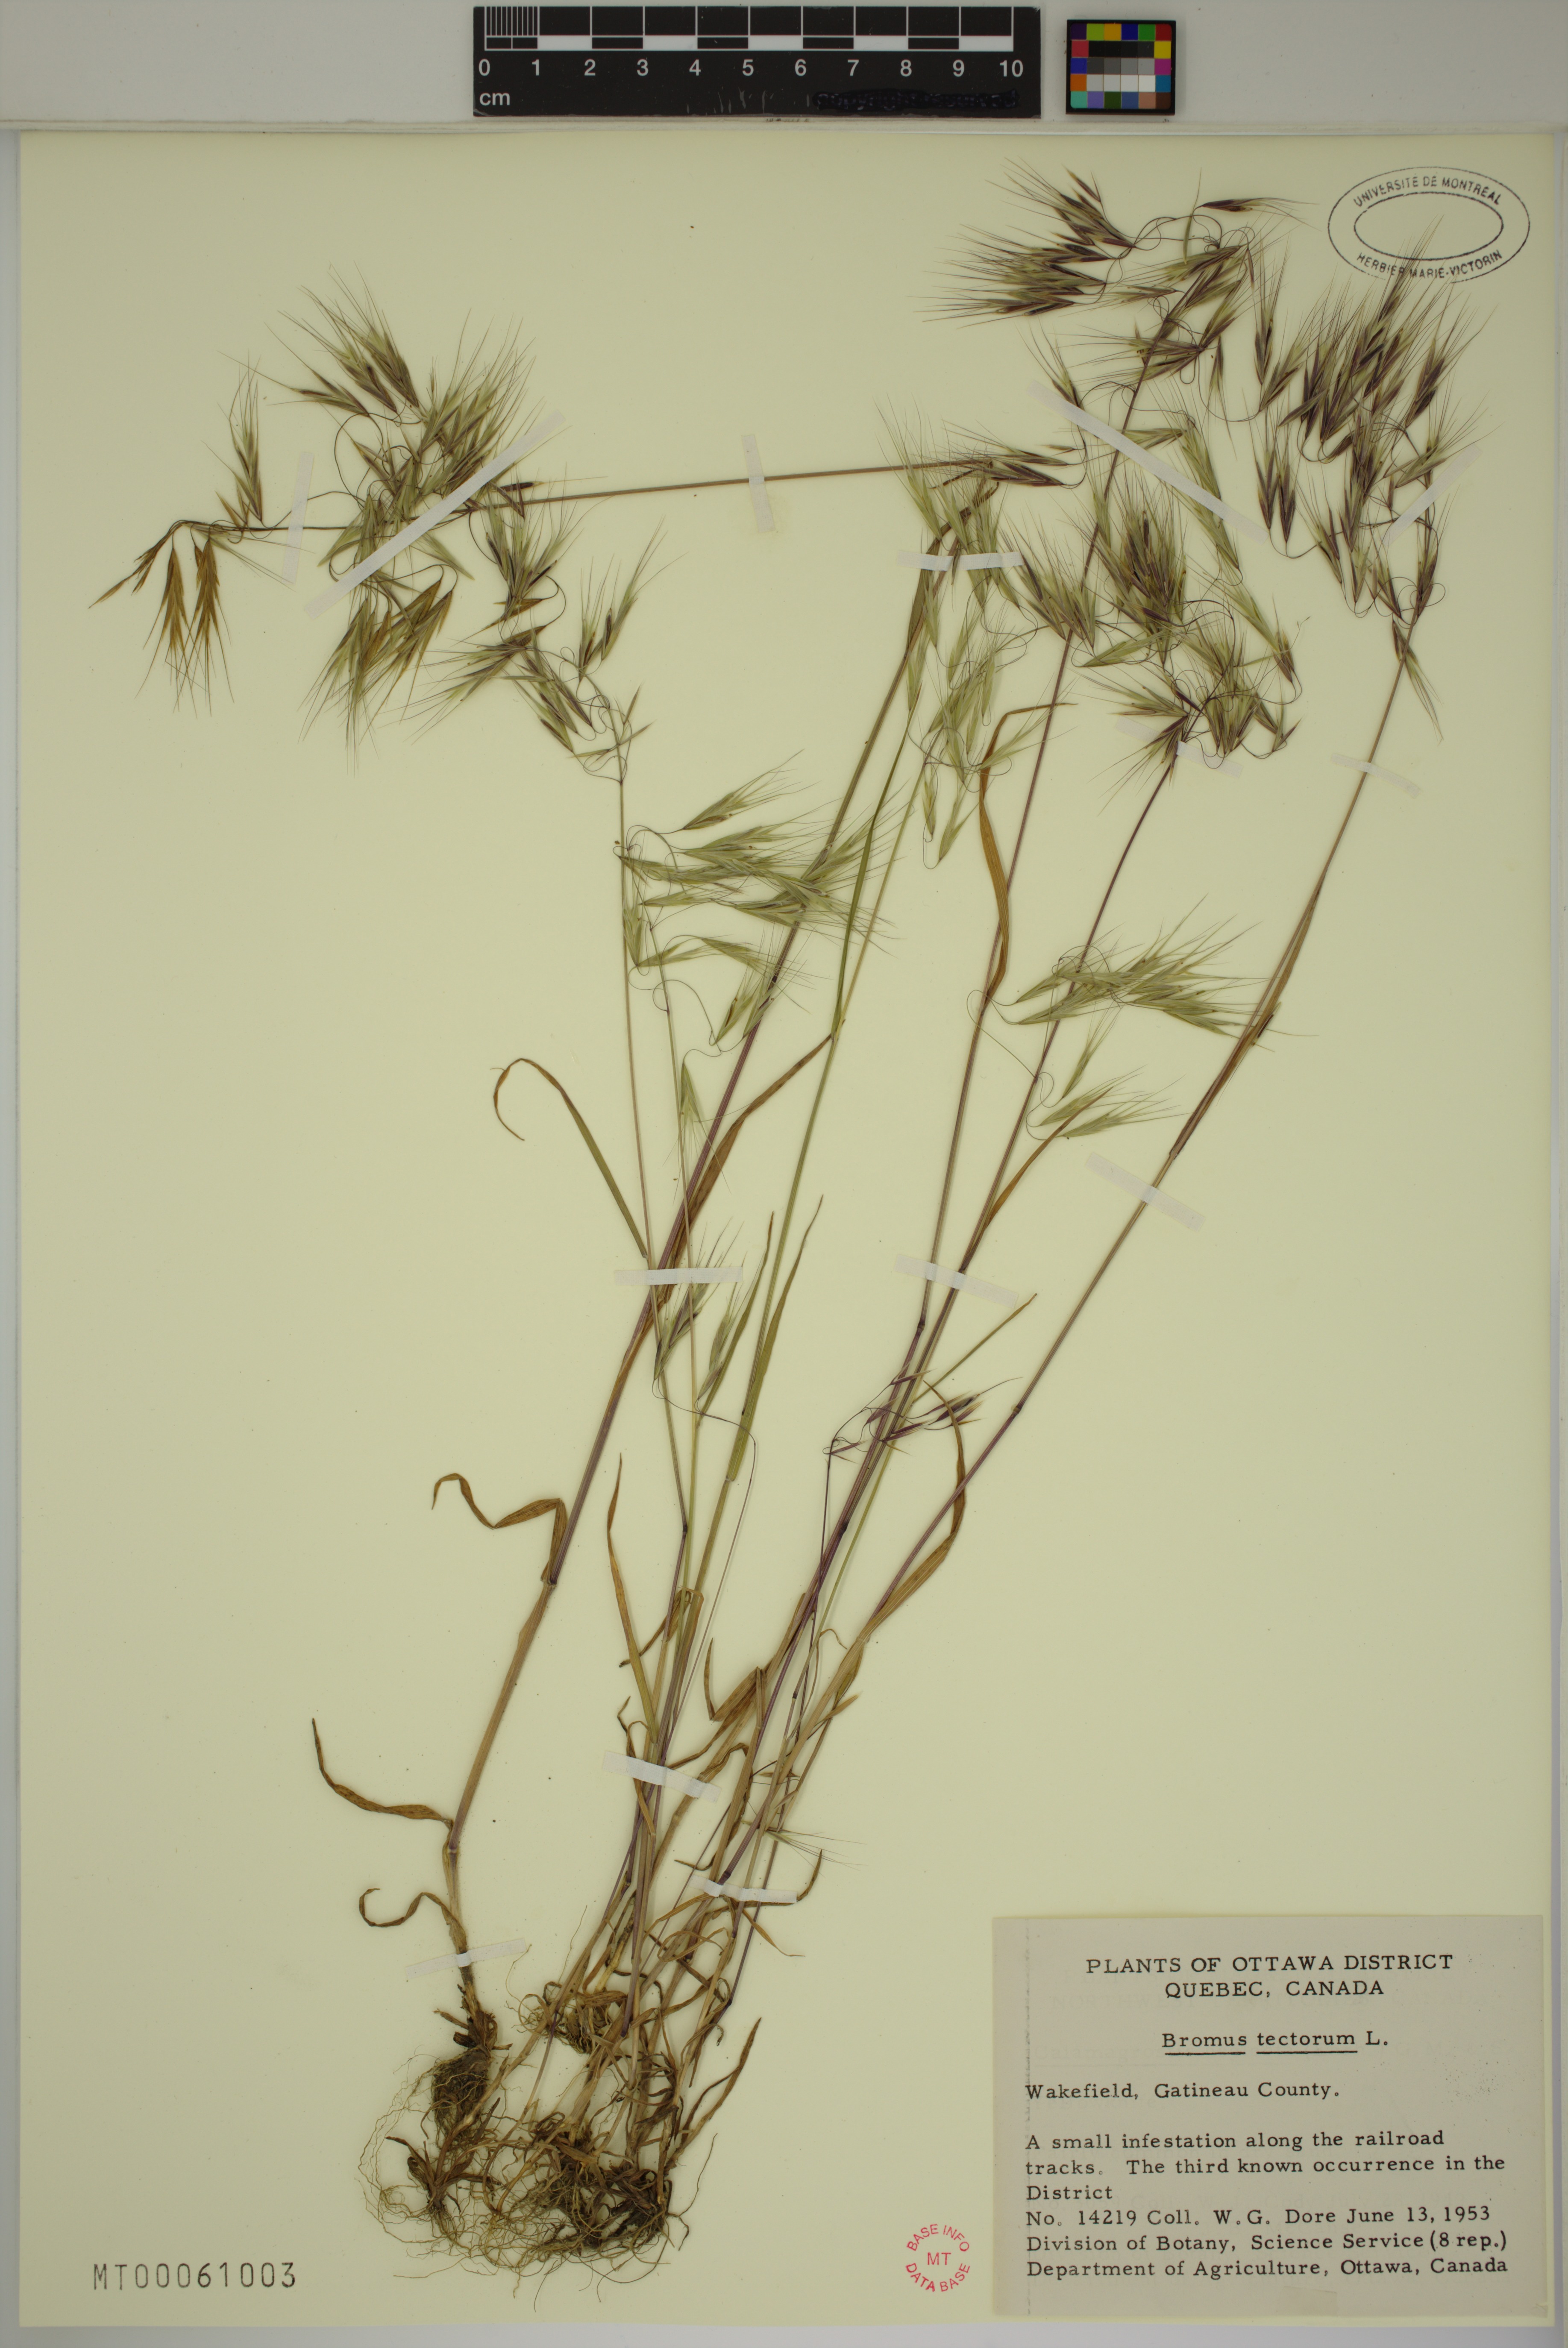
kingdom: Plantae
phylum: Tracheophyta
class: Liliopsida
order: Poales
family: Poaceae
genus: Bromus
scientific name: Bromus tectorum
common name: Cheatgrass
